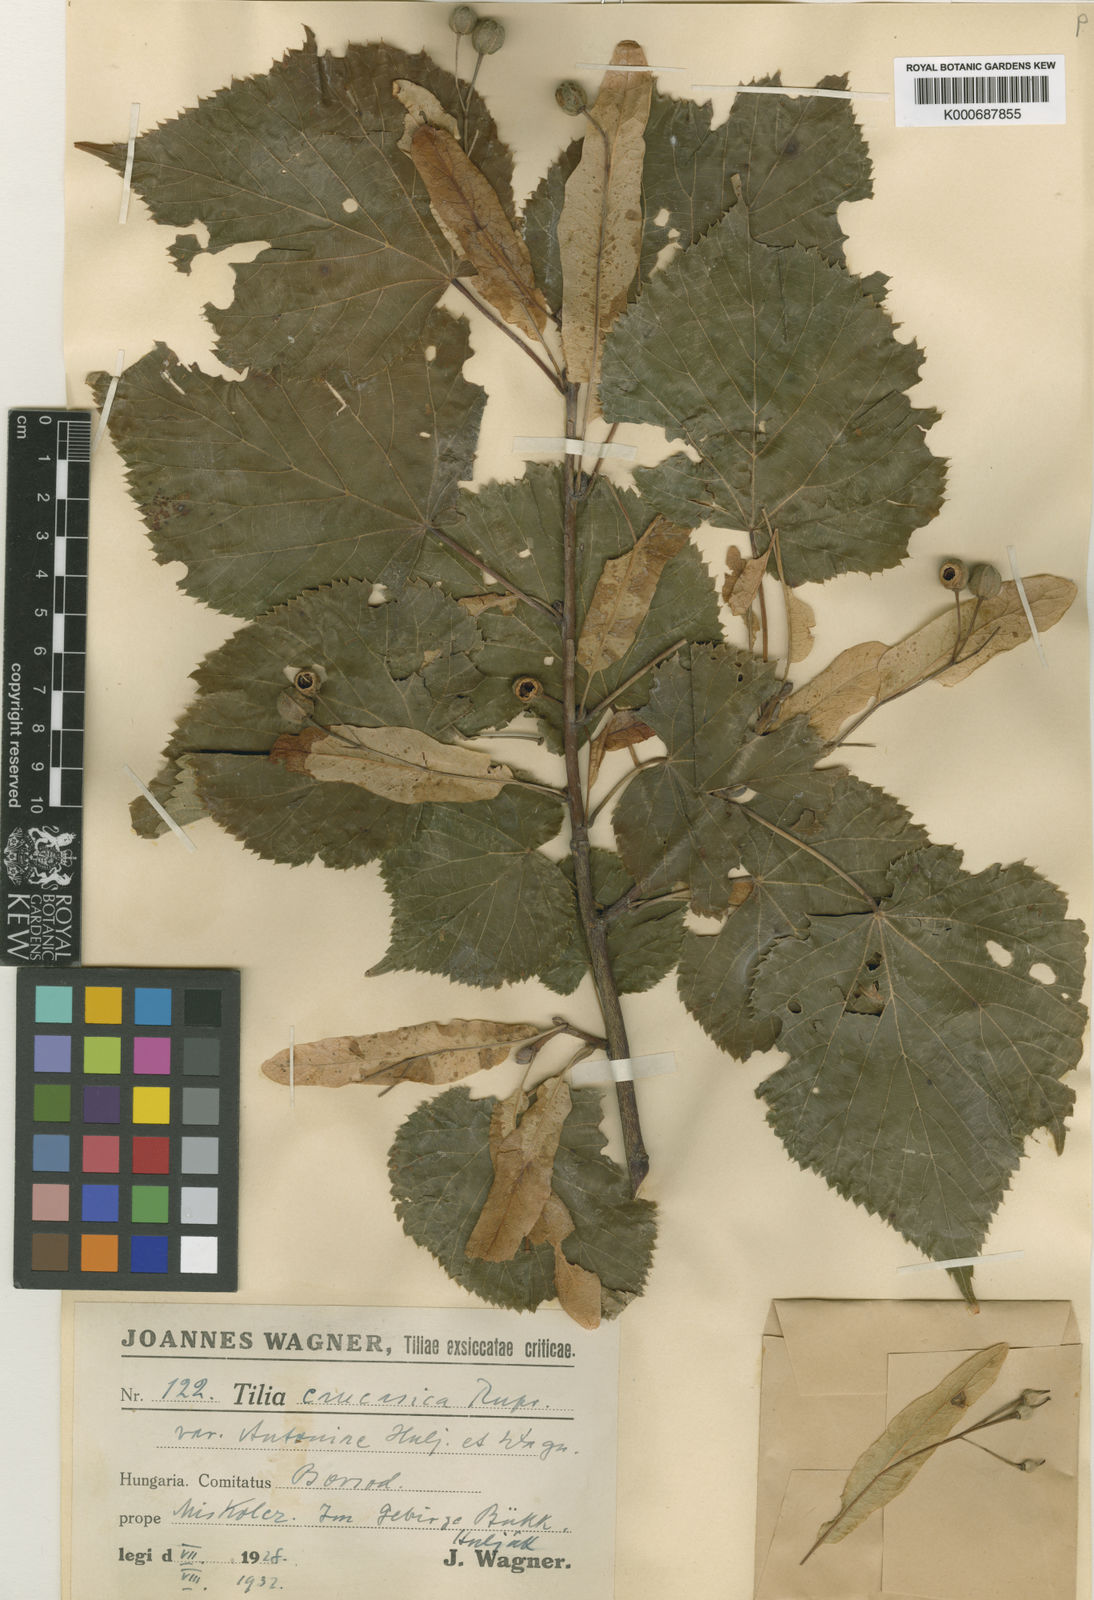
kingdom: Plantae
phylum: Tracheophyta
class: Magnoliopsida
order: Malvales
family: Malvaceae
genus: Tilia
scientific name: Tilia platyphyllos
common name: Large-leaved lime
